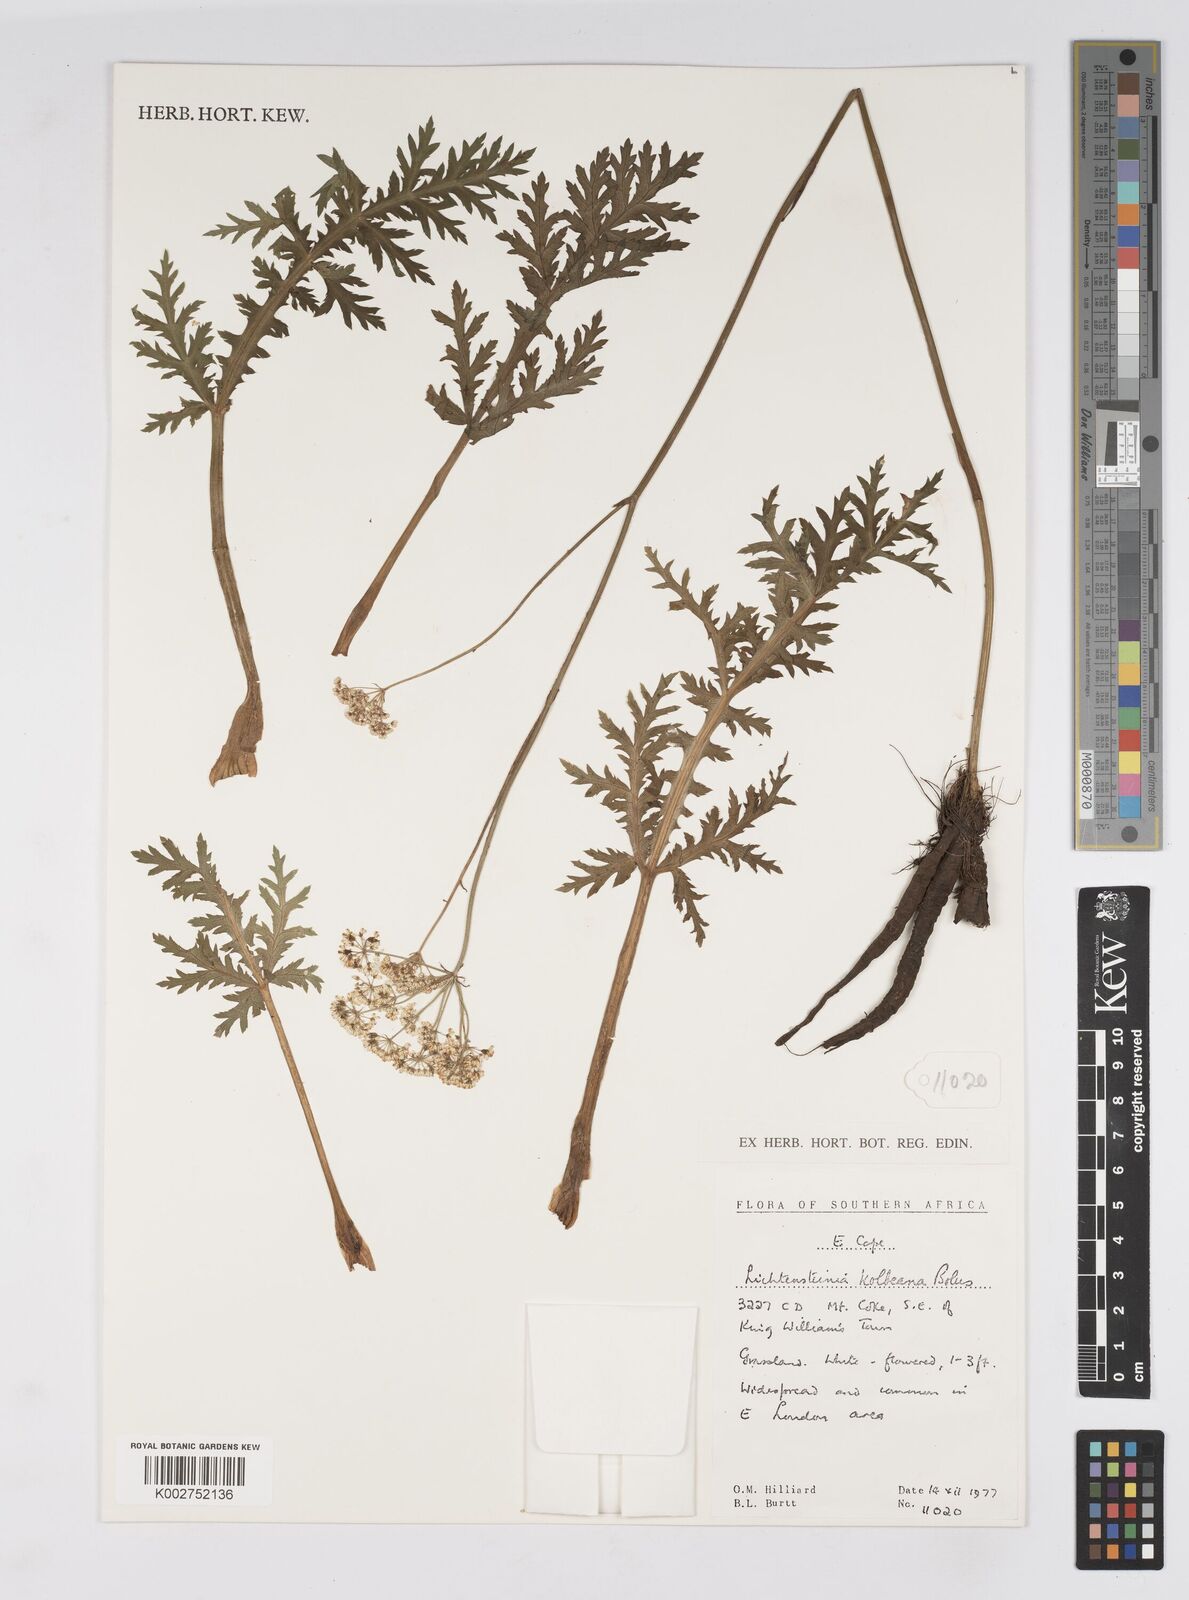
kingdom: Plantae
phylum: Tracheophyta
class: Magnoliopsida
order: Apiales
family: Apiaceae
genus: Lichtensteinia
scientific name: Lichtensteinia interrupta
